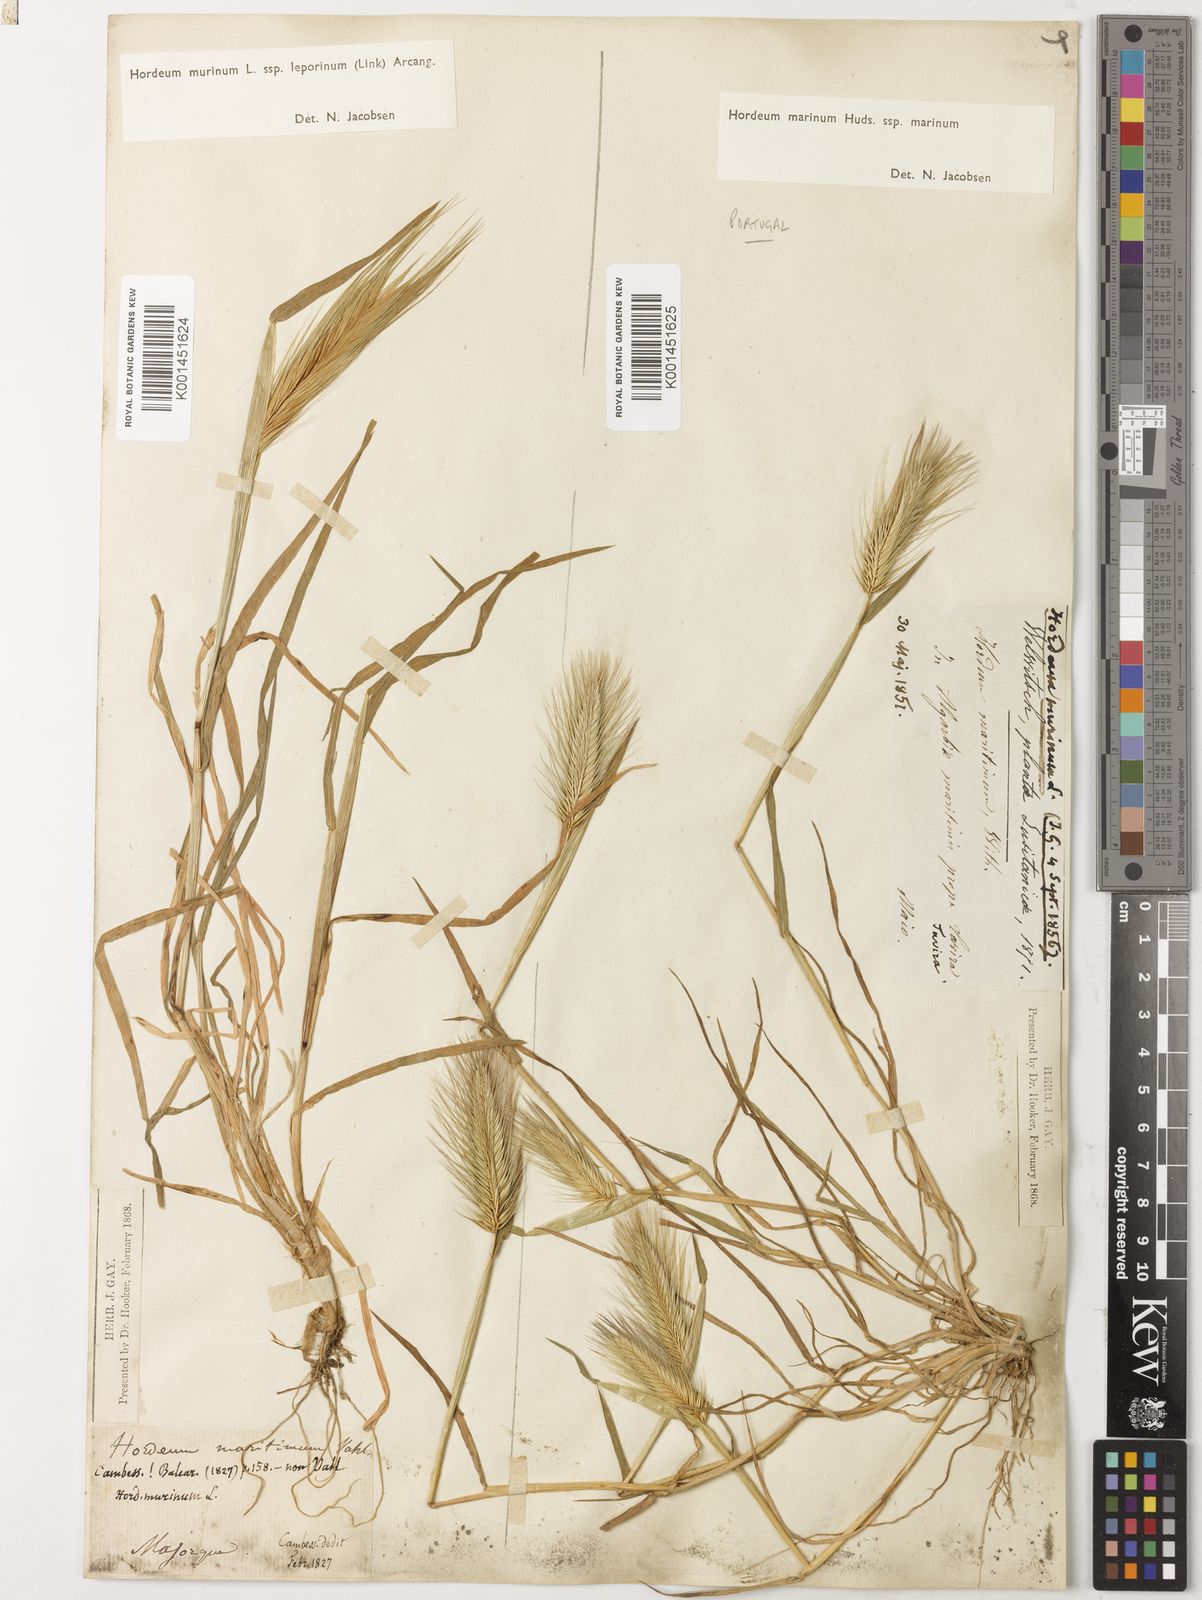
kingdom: Plantae
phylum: Tracheophyta
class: Liliopsida
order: Poales
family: Poaceae
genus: Hordeum
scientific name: Hordeum marinum
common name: Sea barley
